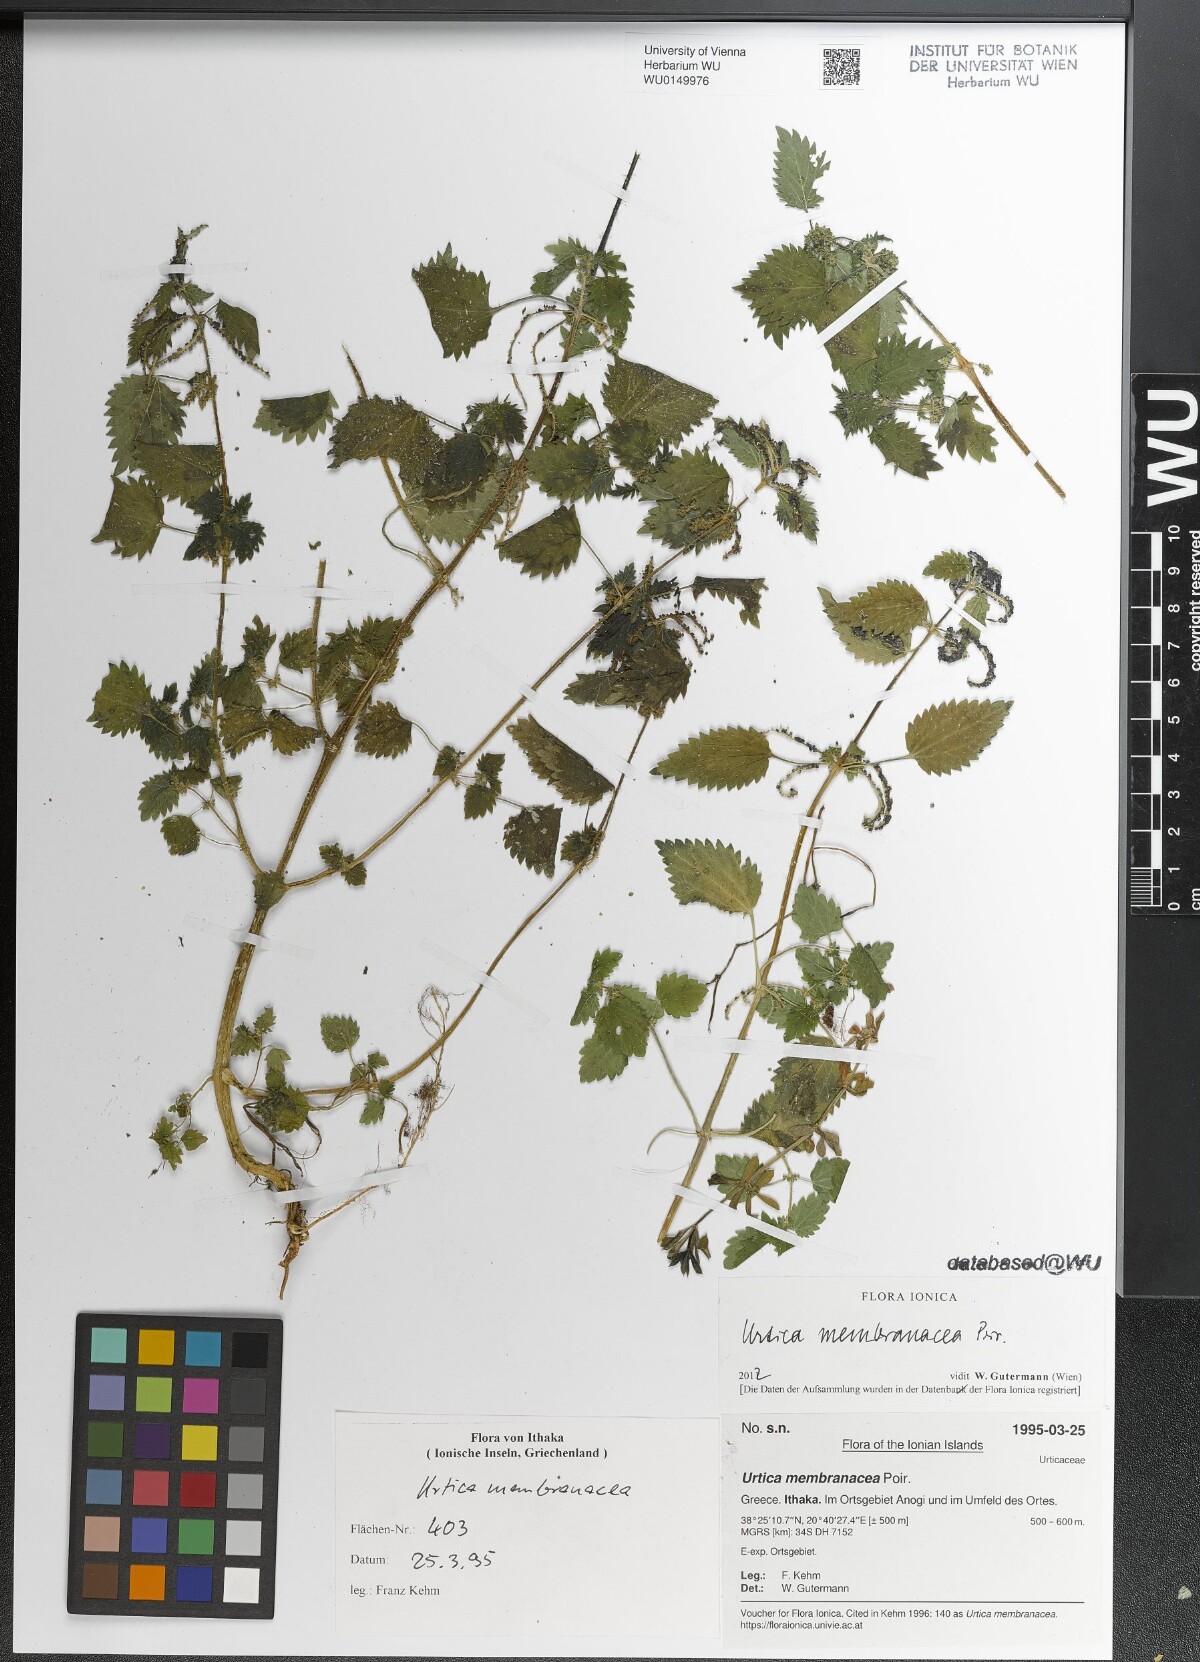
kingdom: Plantae
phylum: Tracheophyta
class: Magnoliopsida
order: Rosales
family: Urticaceae
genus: Urtica
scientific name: Urtica membranacea
